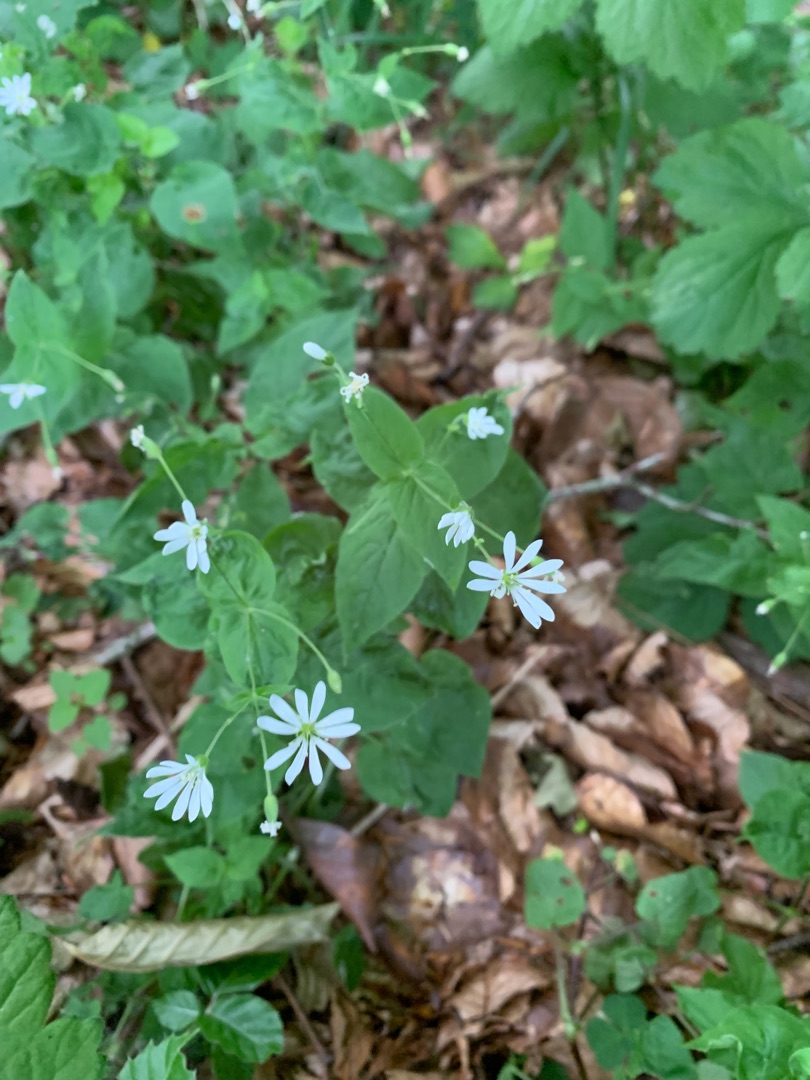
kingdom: Plantae
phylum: Tracheophyta
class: Magnoliopsida
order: Caryophyllales
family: Caryophyllaceae
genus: Stellaria
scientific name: Stellaria nemorum
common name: Lund-fladstjerne
